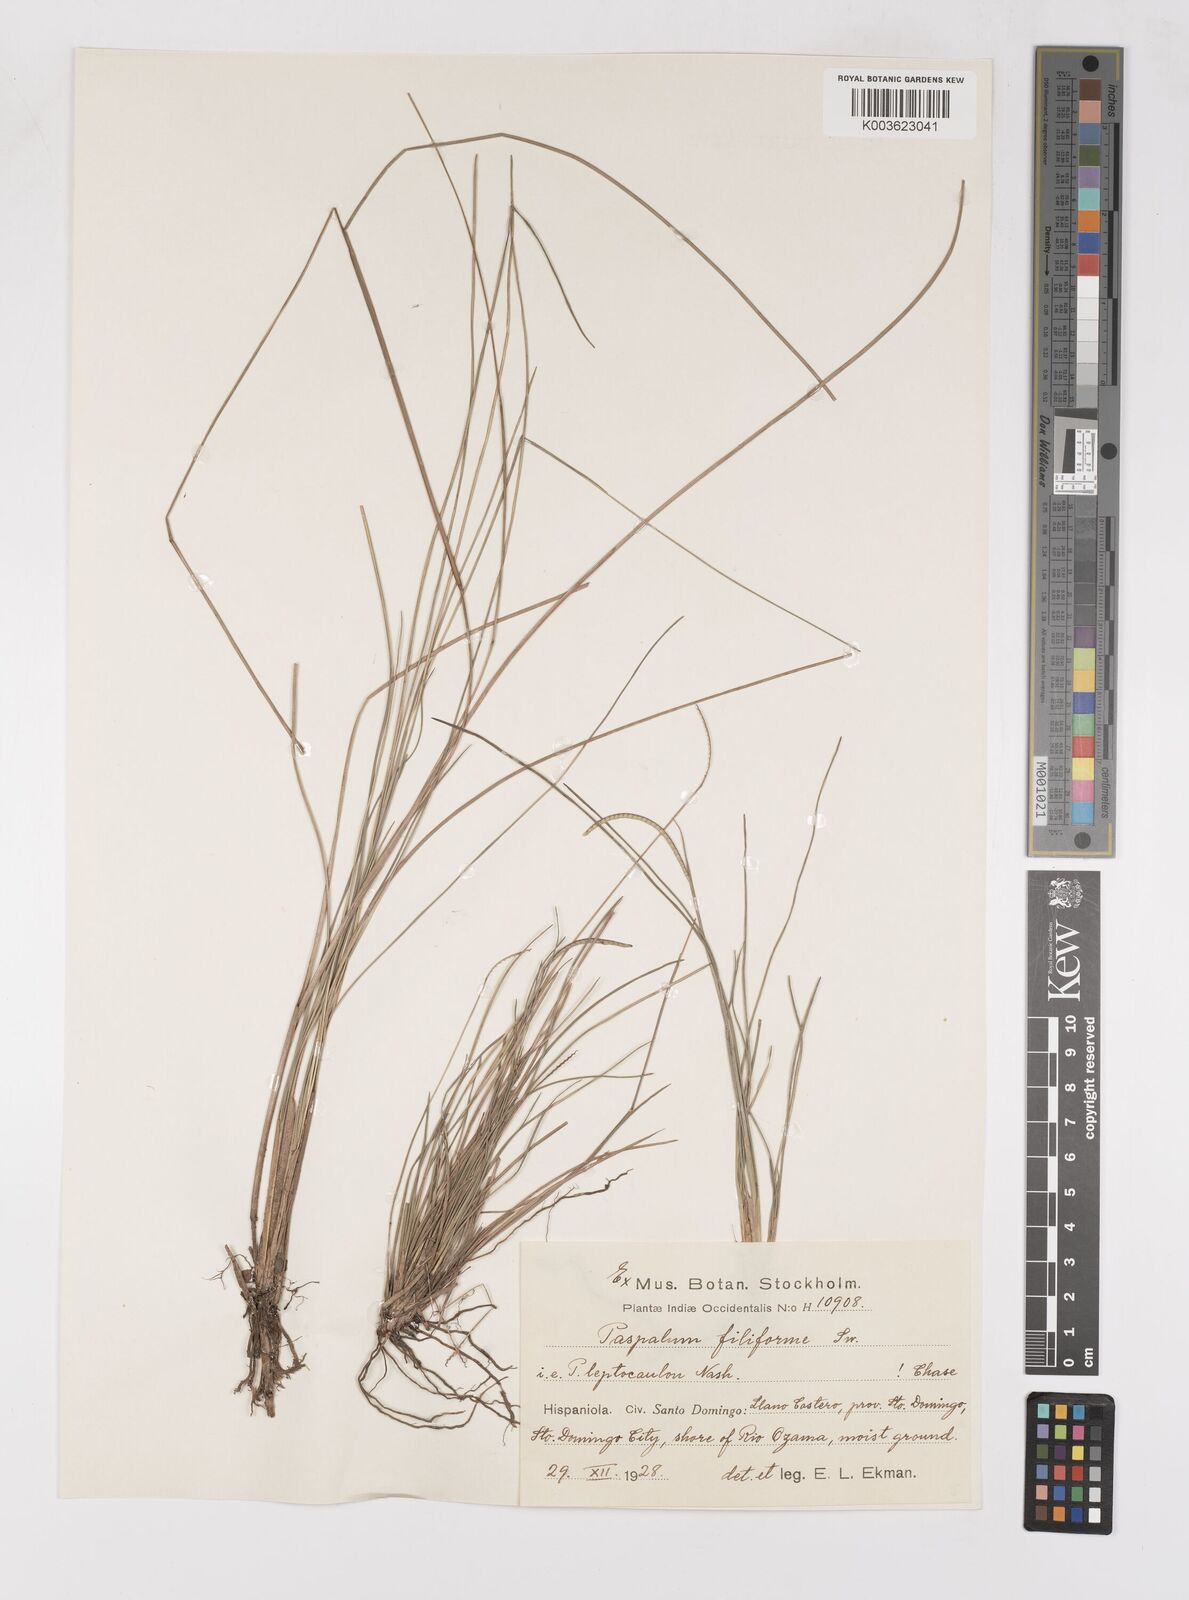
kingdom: Plantae
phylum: Tracheophyta
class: Liliopsida
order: Poales
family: Poaceae
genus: Paspalum
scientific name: Paspalum filiforme
